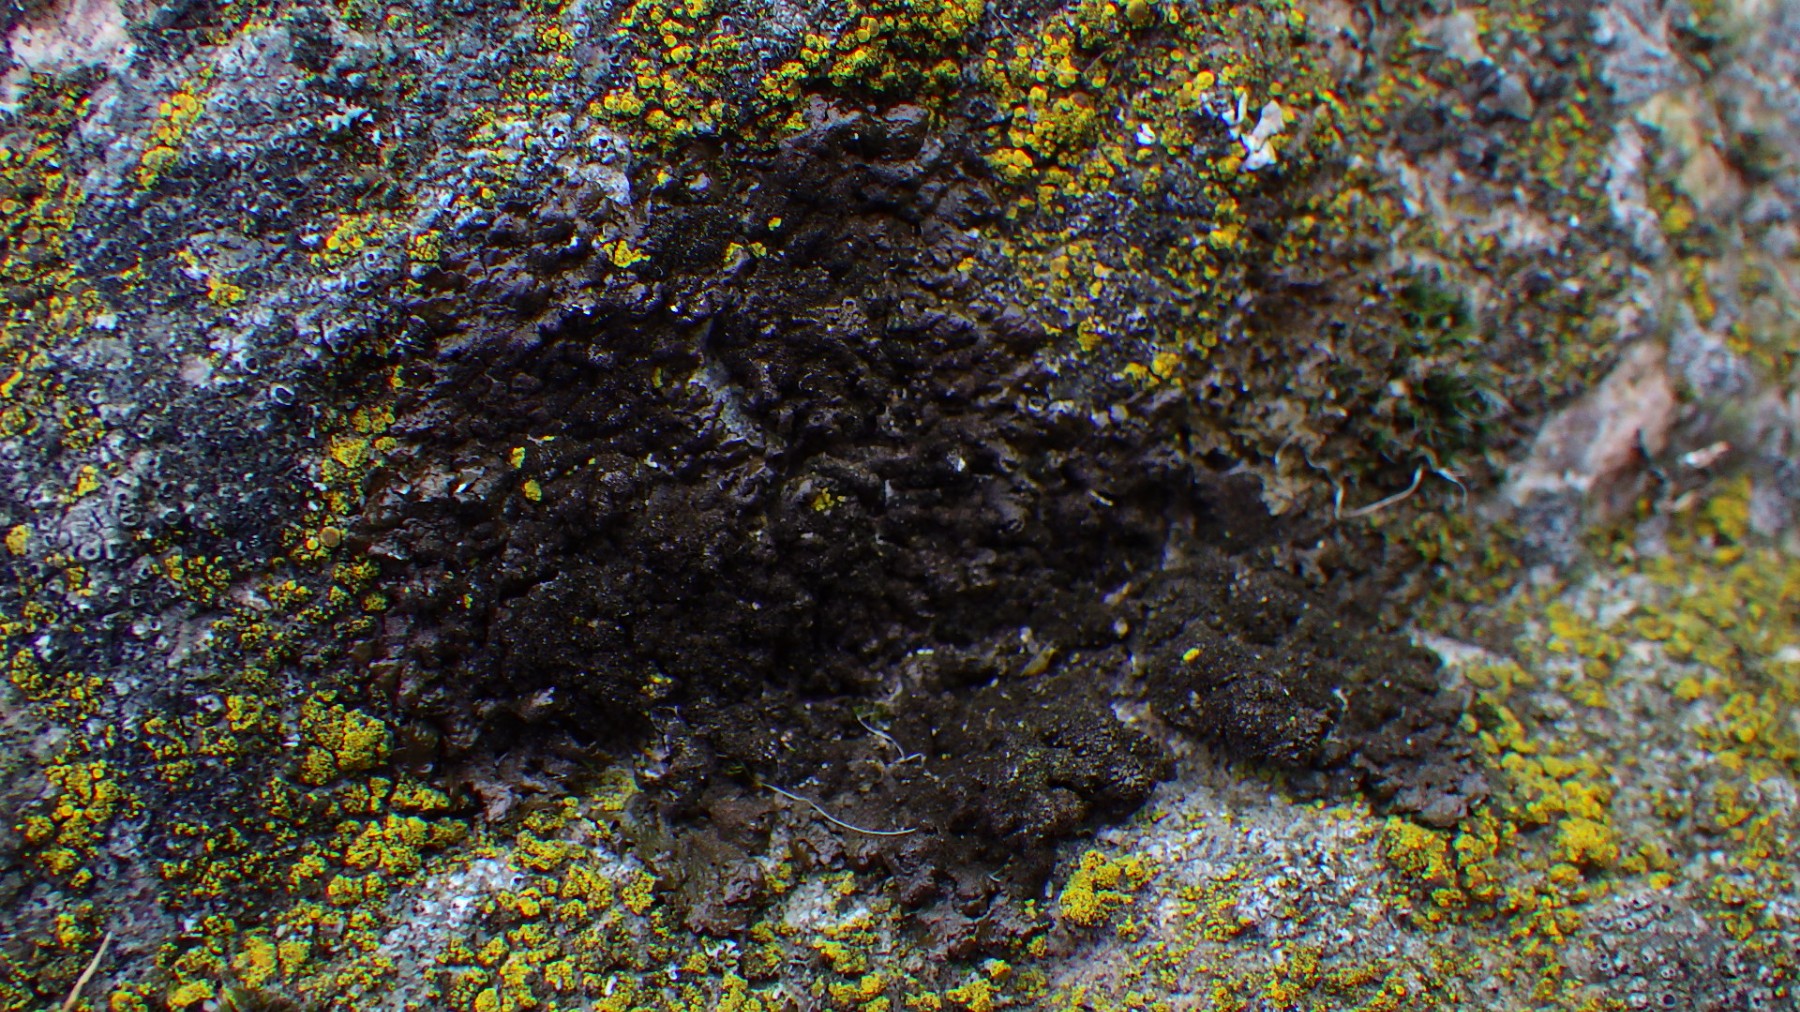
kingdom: Fungi
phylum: Ascomycota
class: Lecanoromycetes
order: Lecanorales
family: Parmeliaceae
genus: Melanelixia
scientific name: Melanelixia fuliginosa
